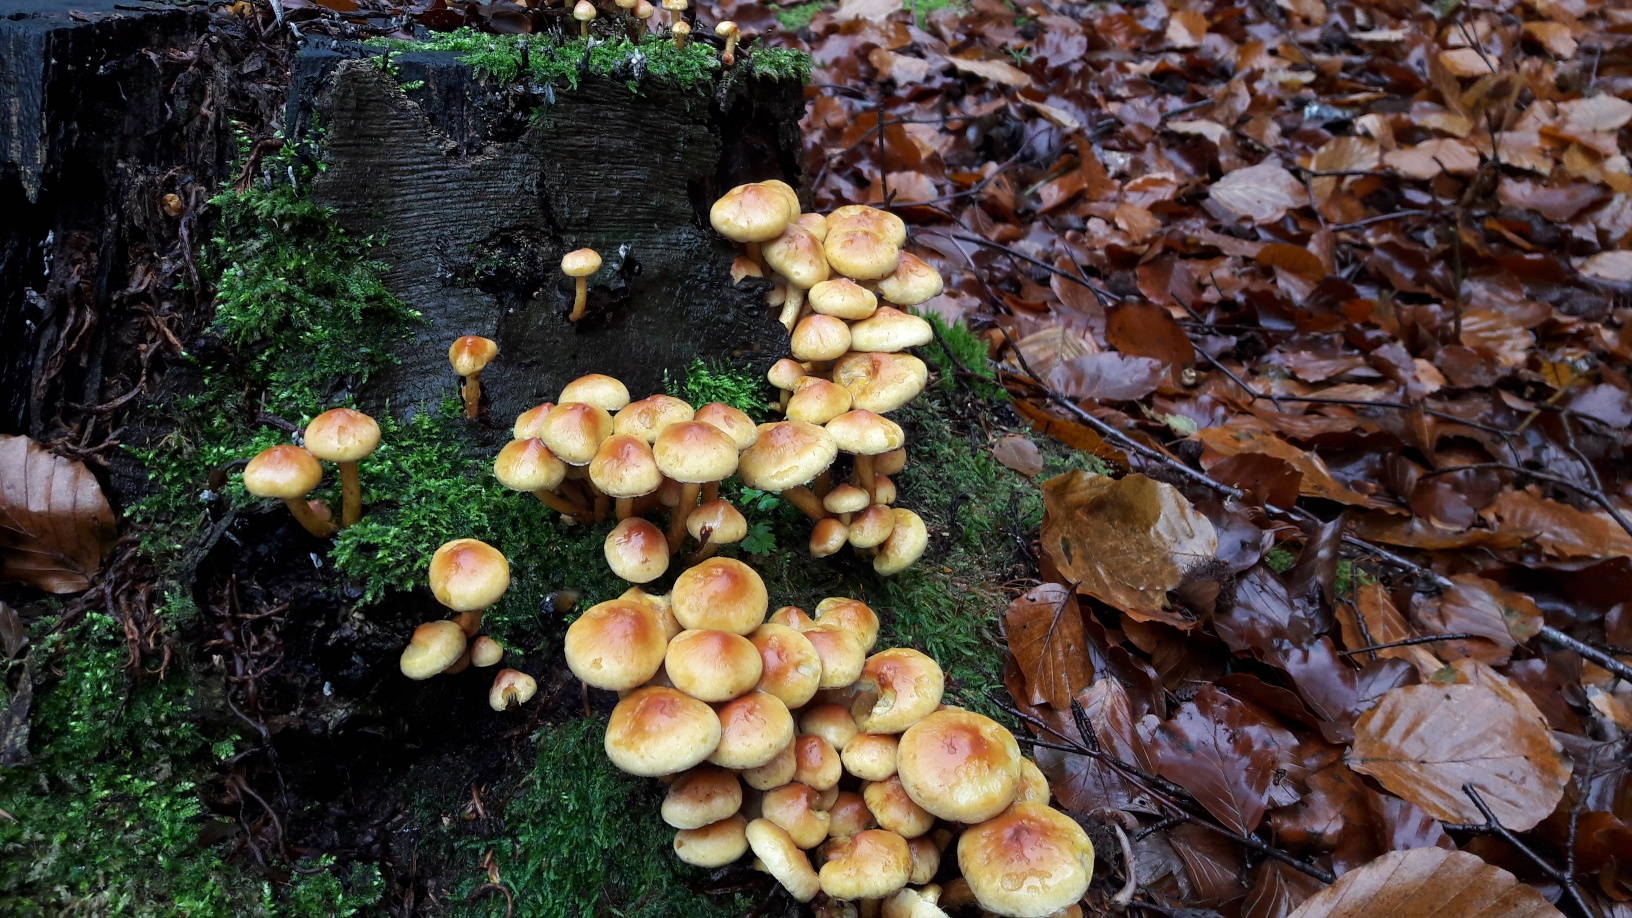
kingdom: Fungi
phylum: Basidiomycota
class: Agaricomycetes
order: Agaricales
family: Strophariaceae
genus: Hypholoma
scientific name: Hypholoma fasciculare
